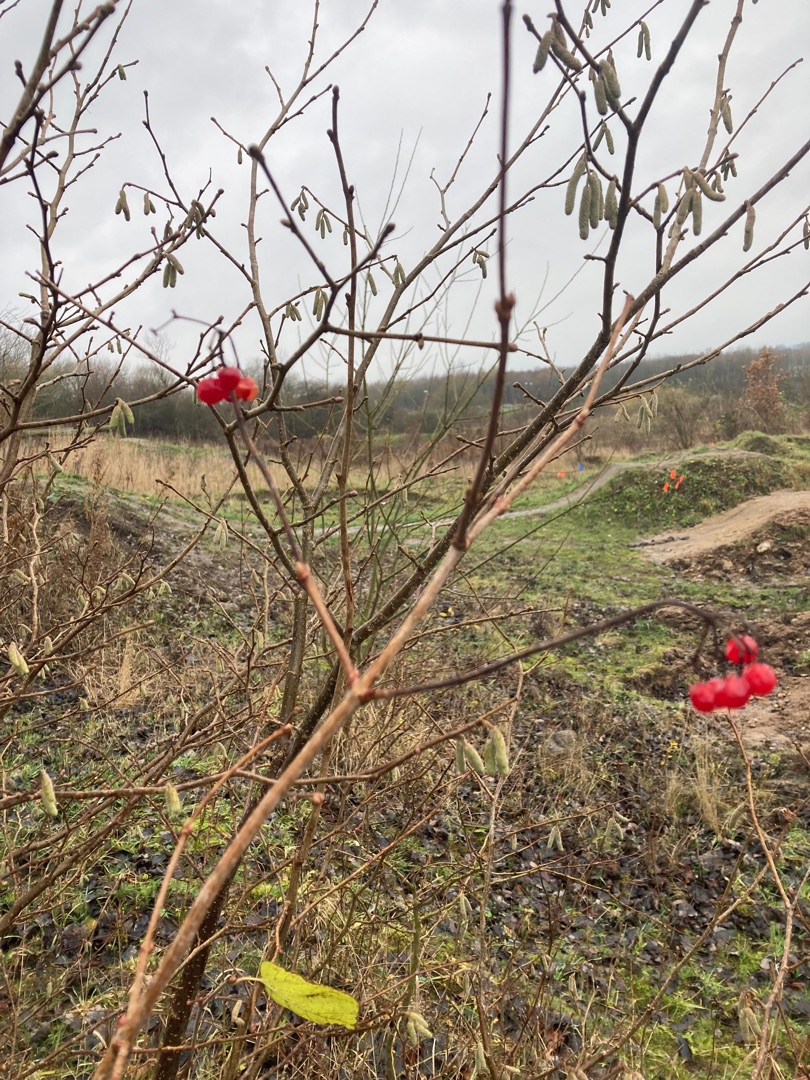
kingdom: Plantae
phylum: Tracheophyta
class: Magnoliopsida
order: Dipsacales
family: Viburnaceae
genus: Viburnum
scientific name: Viburnum opulus
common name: Kvalkved
